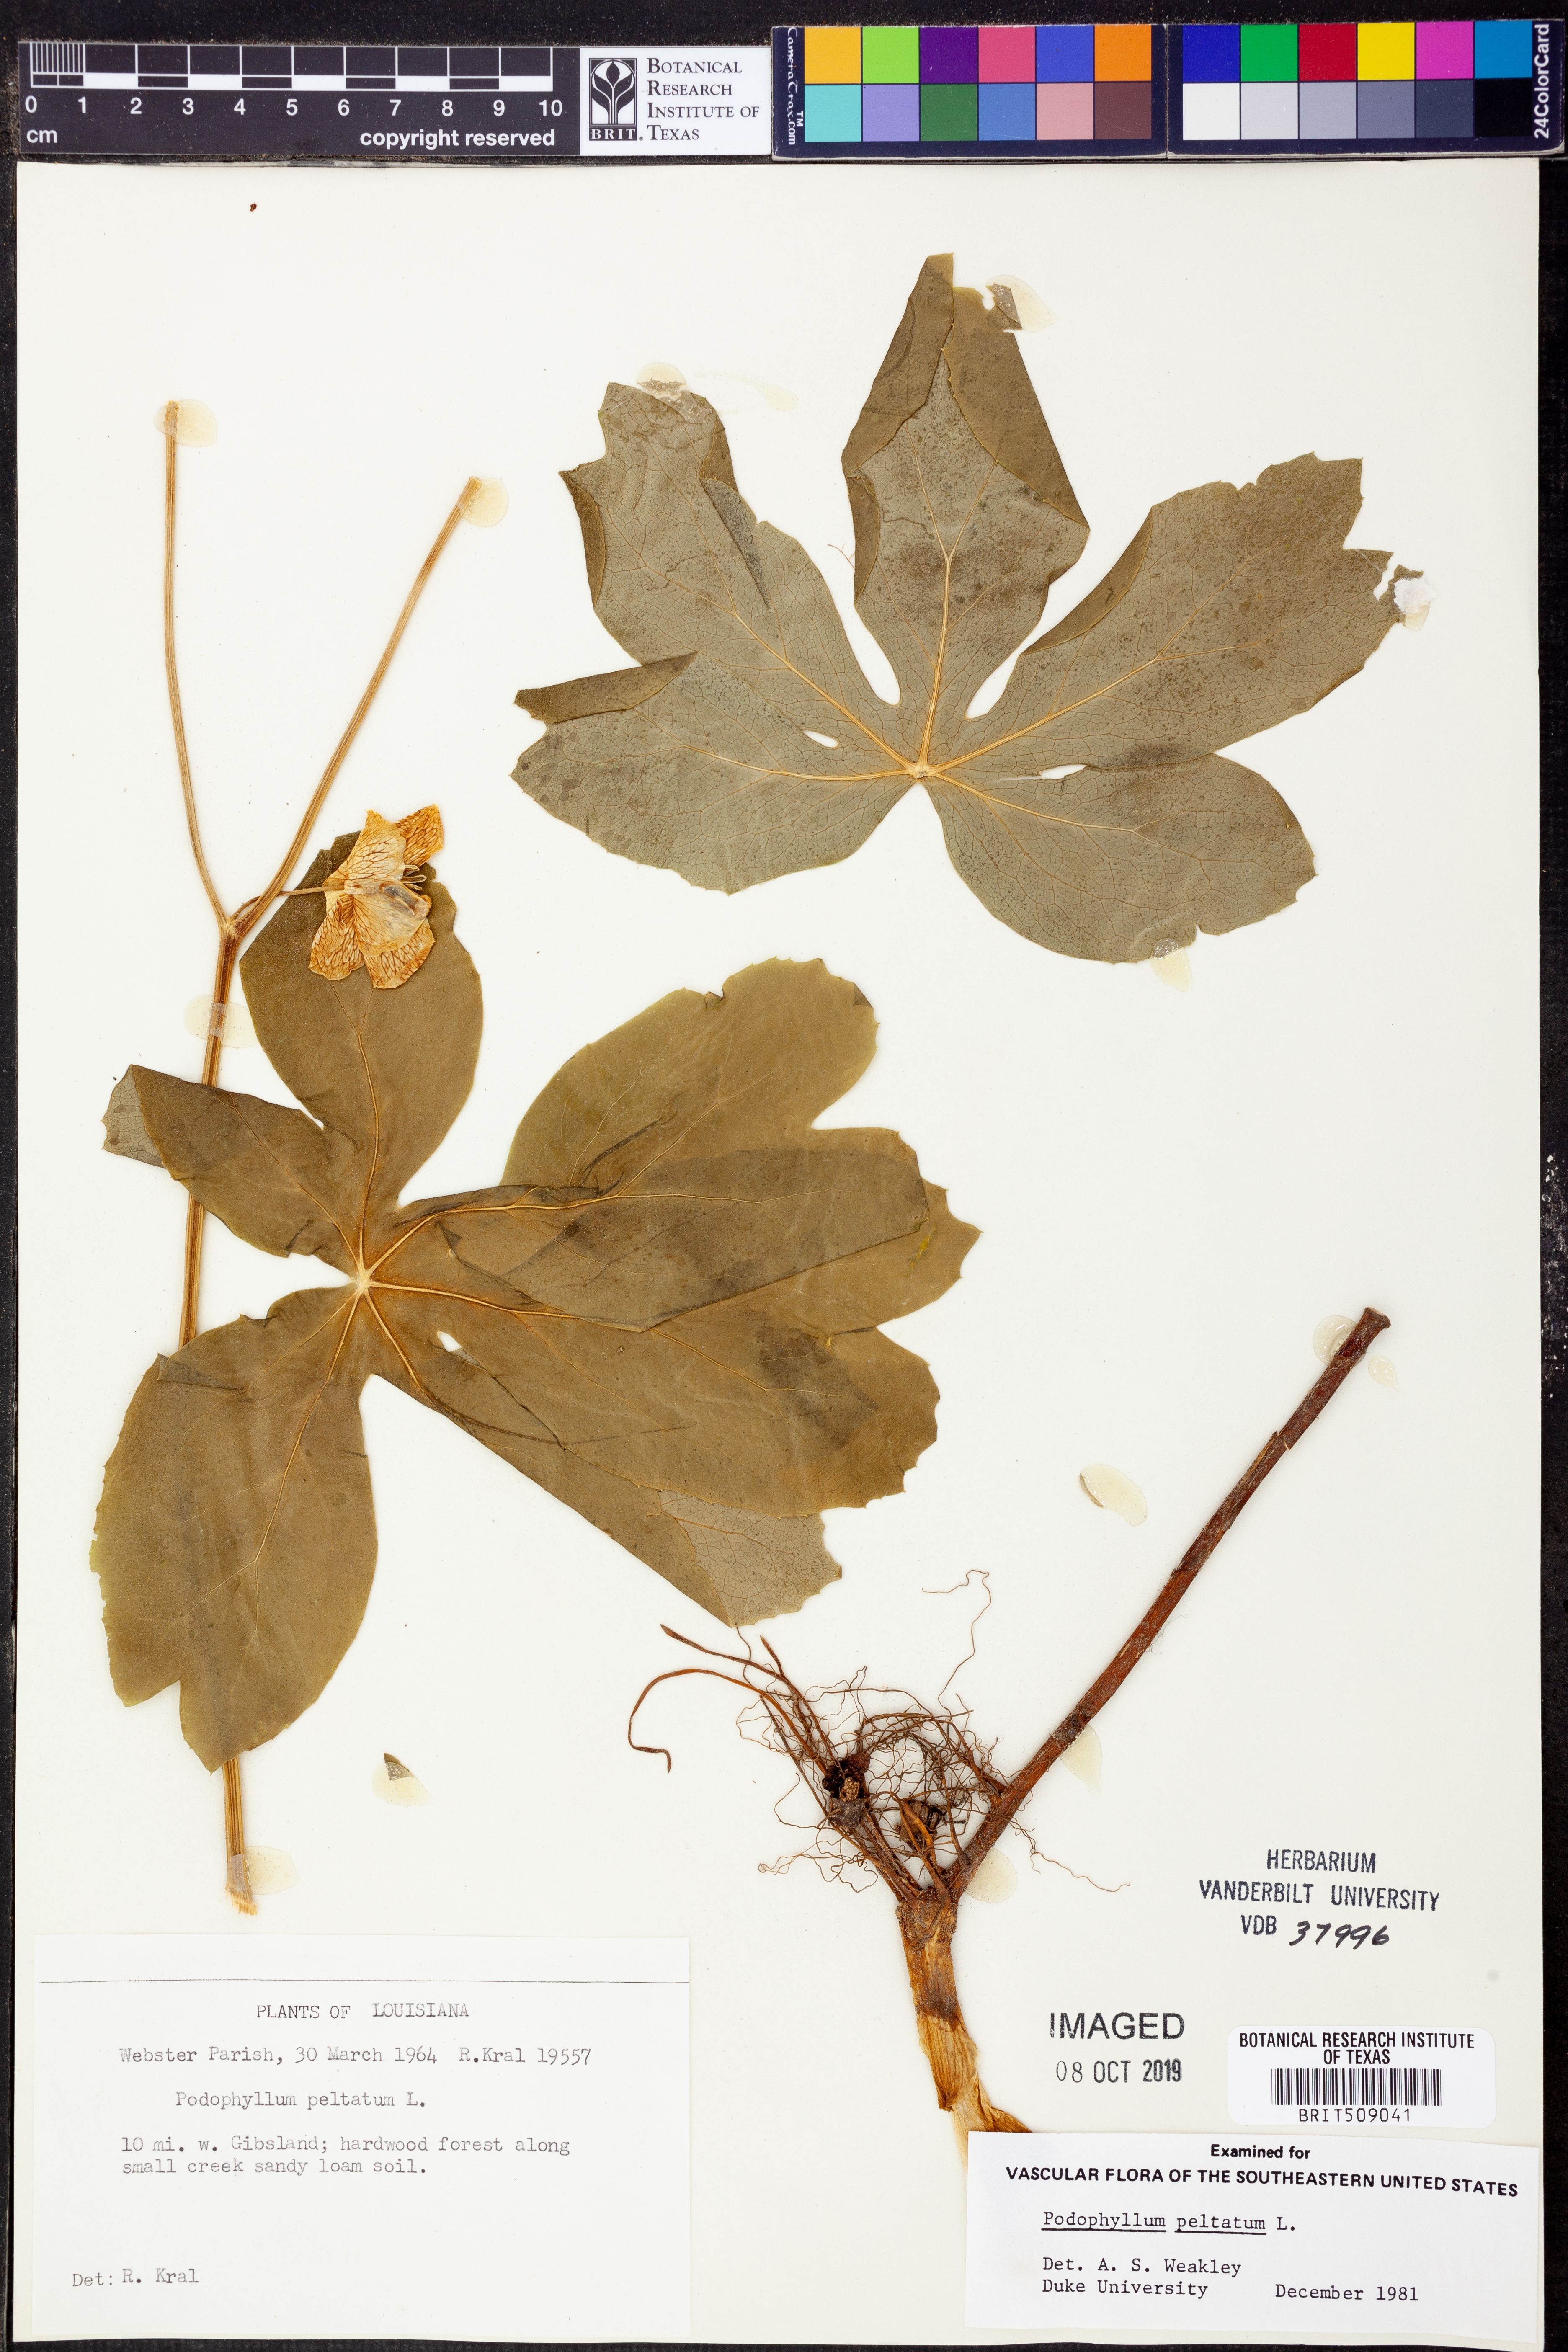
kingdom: Plantae
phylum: Tracheophyta
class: Magnoliopsida
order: Ranunculales
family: Berberidaceae
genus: Podophyllum
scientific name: Podophyllum peltatum
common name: Wild mandrake
